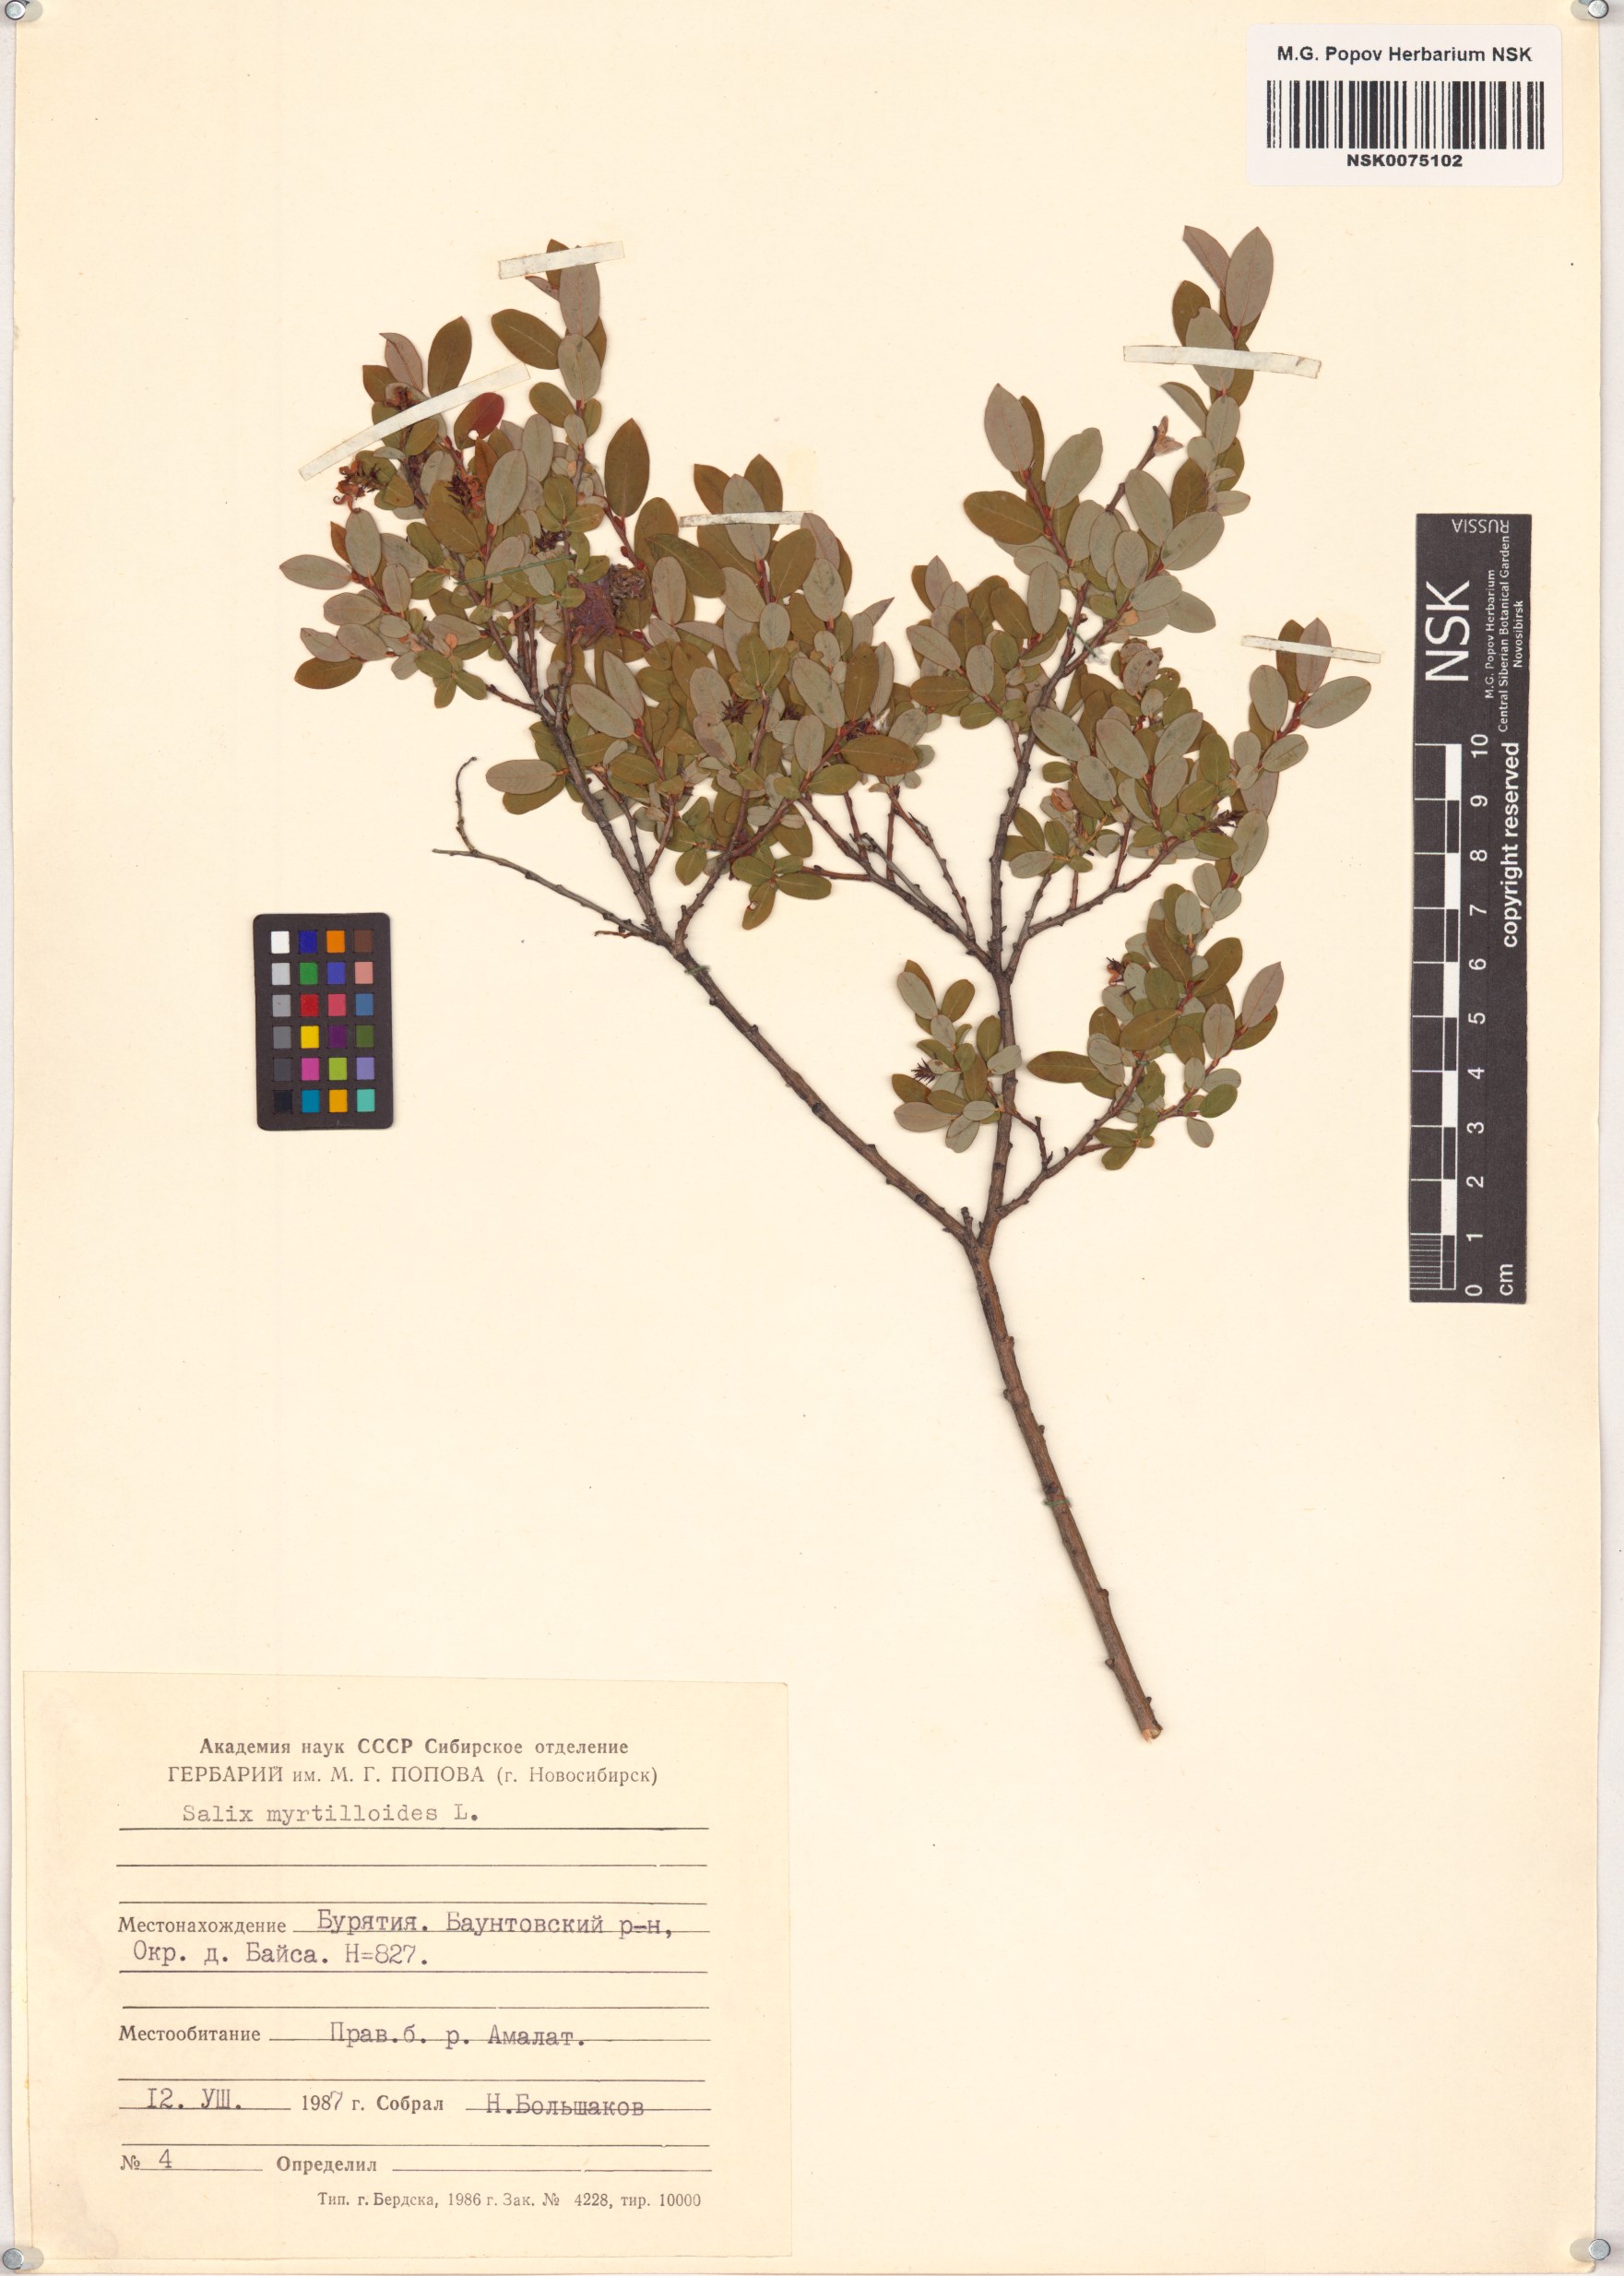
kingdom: Plantae
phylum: Tracheophyta
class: Magnoliopsida
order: Malpighiales
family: Salicaceae
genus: Salix
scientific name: Salix myrtilloides
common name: Myrtle-leaved willow
